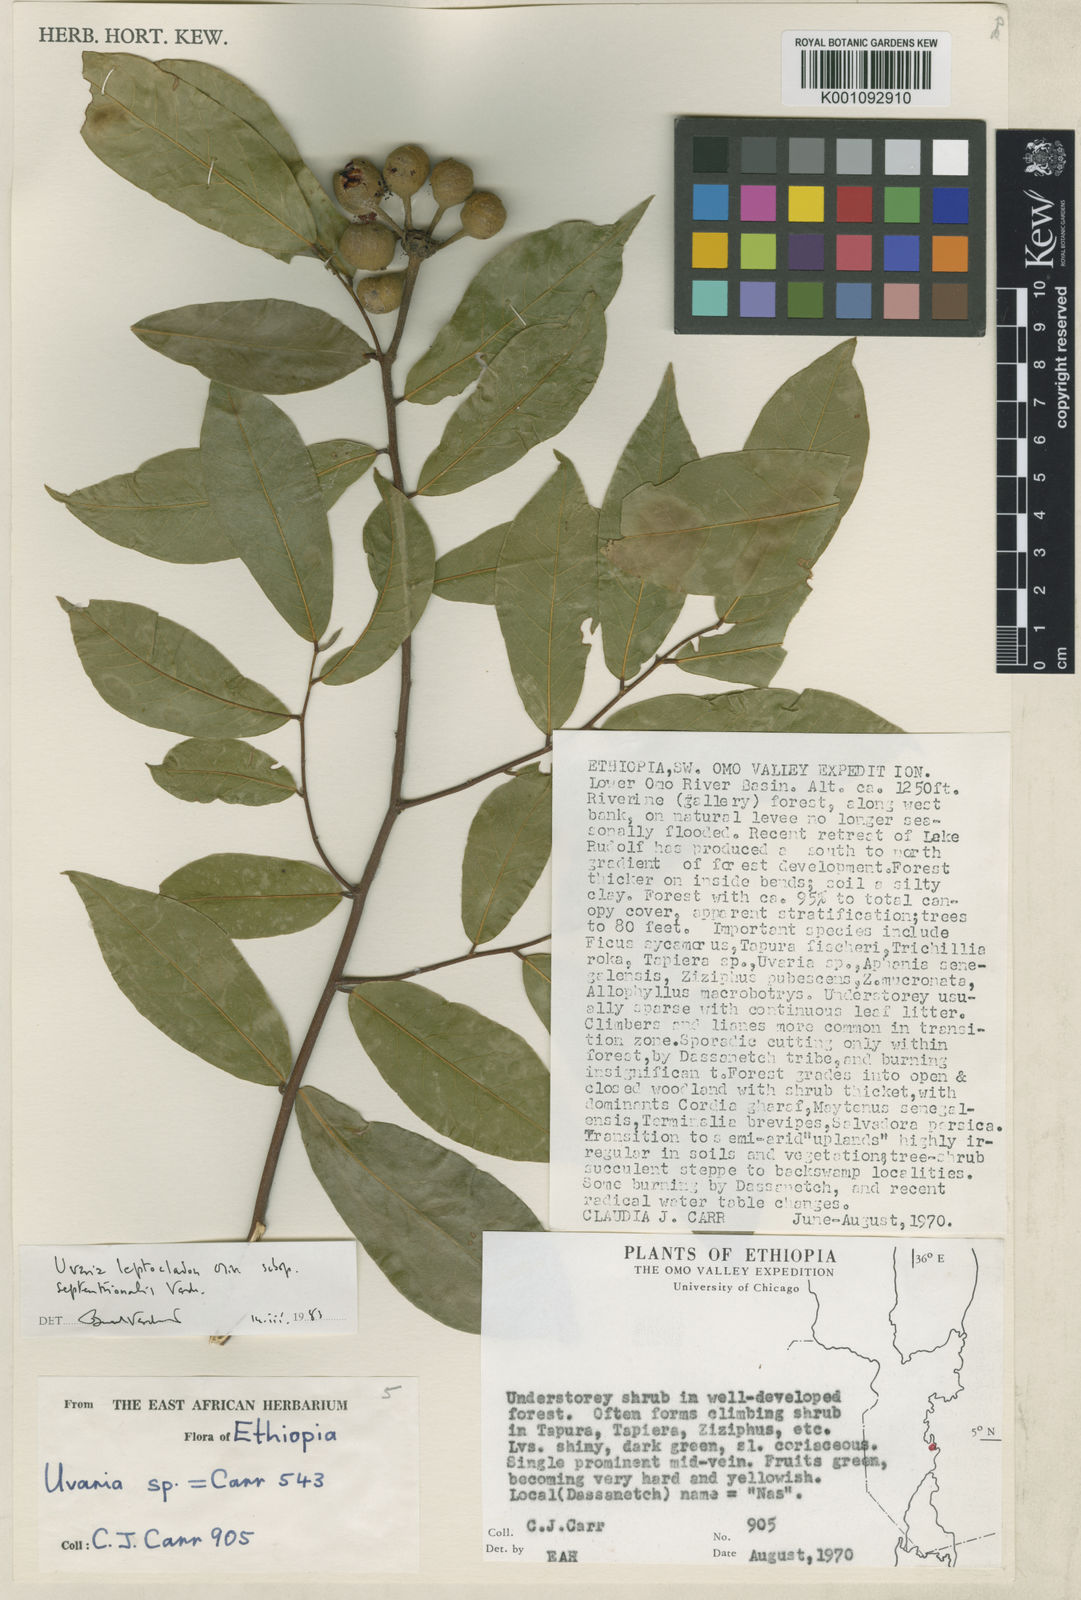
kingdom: Plantae
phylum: Tracheophyta
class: Magnoliopsida
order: Magnoliales
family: Annonaceae
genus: Uvaria
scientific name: Uvaria leptocladon
